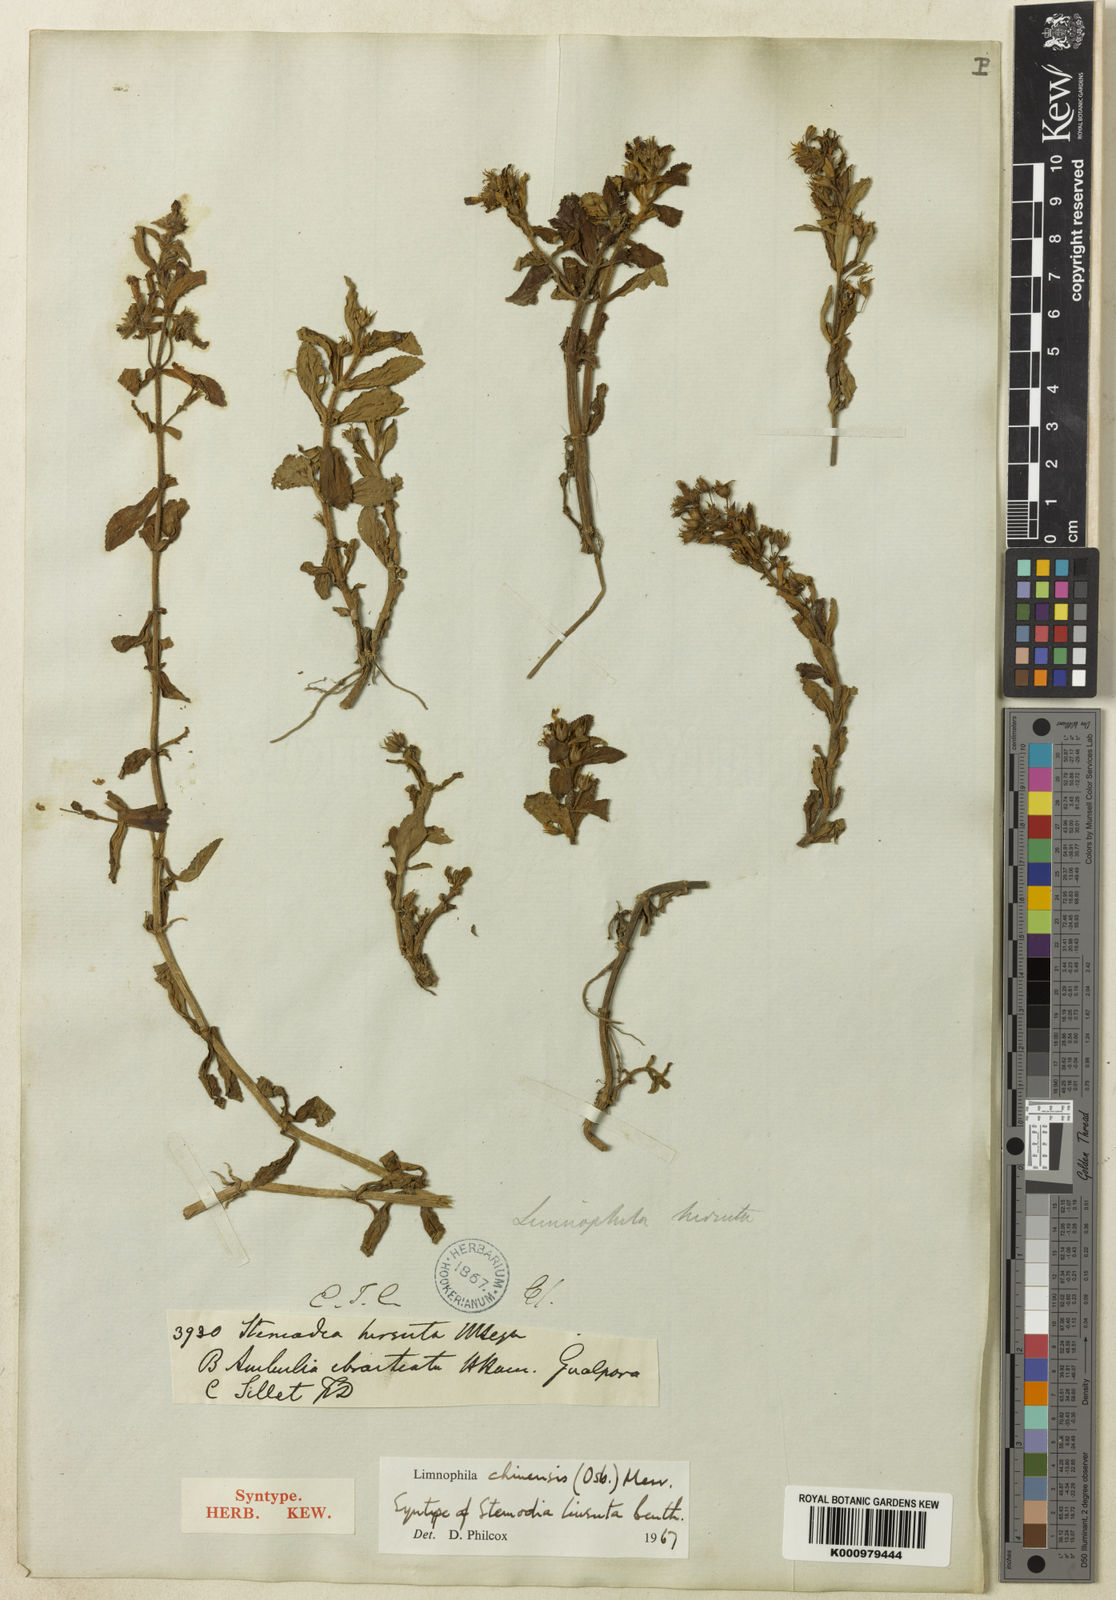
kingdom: Plantae
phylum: Tracheophyta
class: Magnoliopsida
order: Lamiales
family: Plantaginaceae
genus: Limnophila
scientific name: Limnophila chinensis
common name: Finger grass
